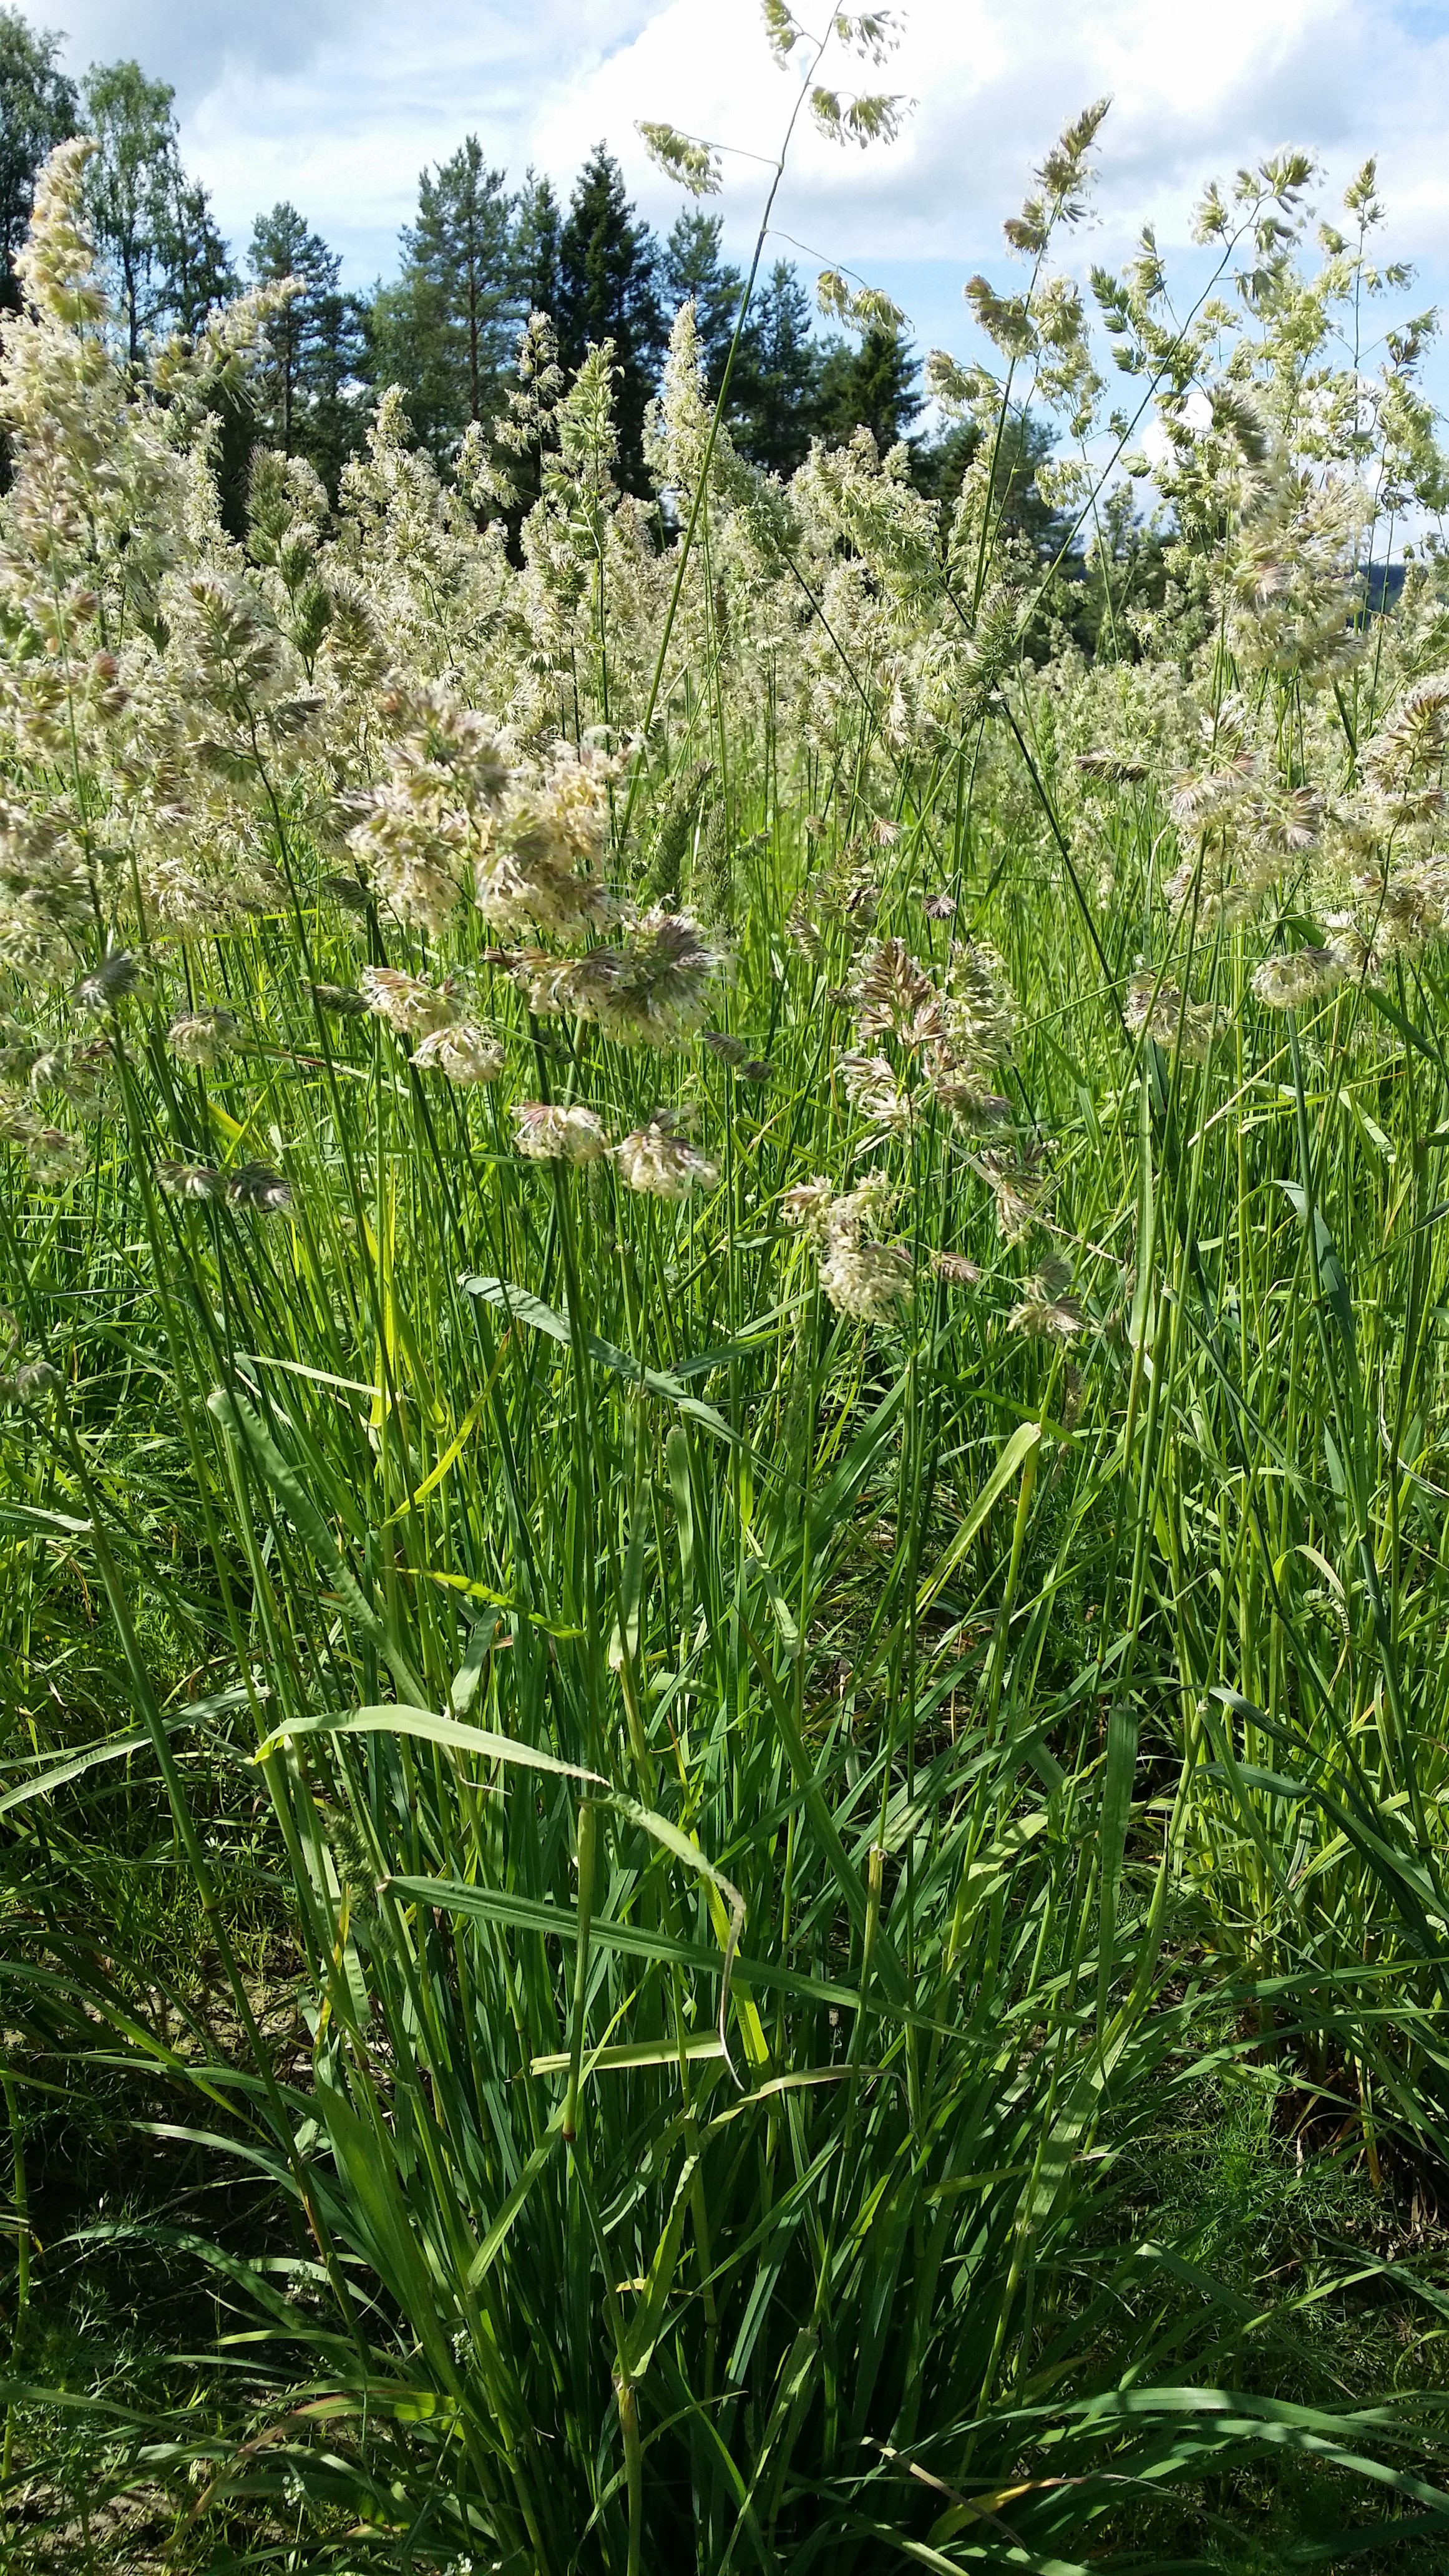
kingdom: Plantae
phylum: Tracheophyta
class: Liliopsida
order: Poales
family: Poaceae
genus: Dactylis
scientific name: Dactylis glomerata
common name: Orchardgrass
